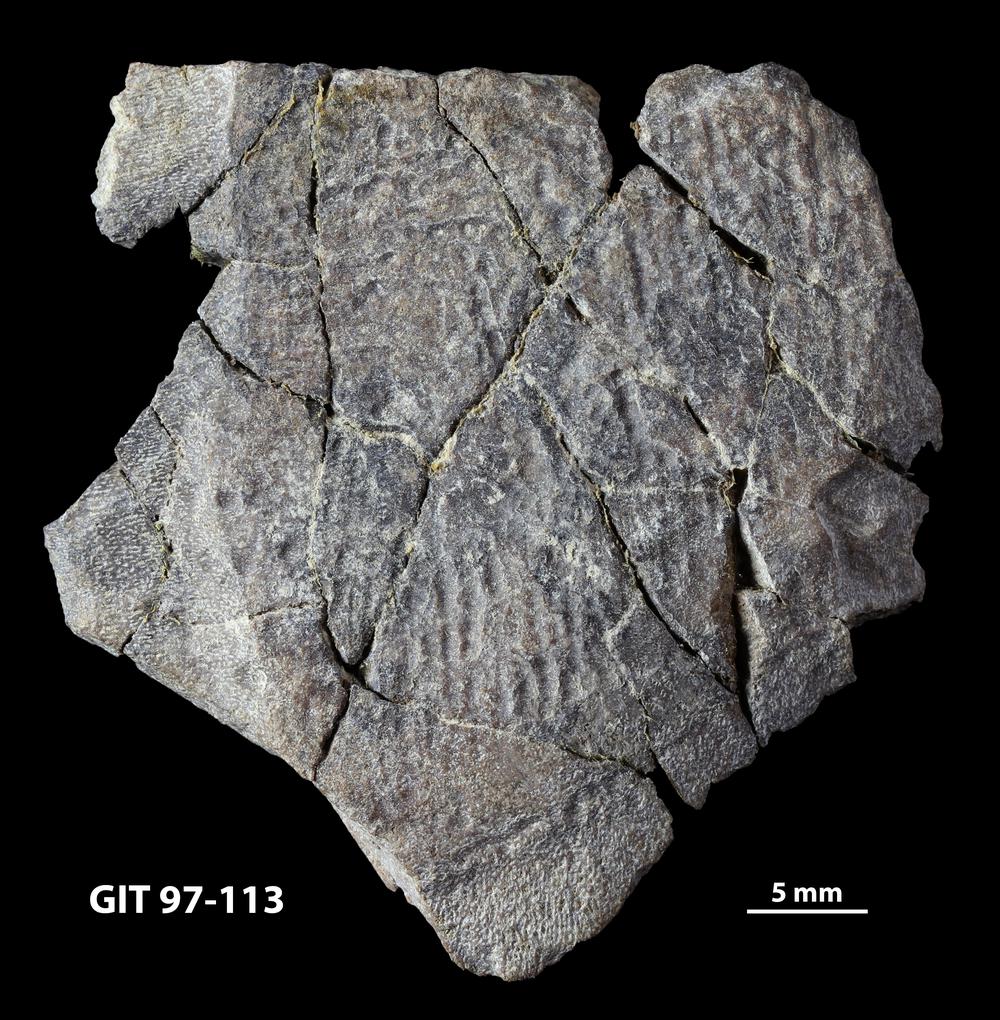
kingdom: Animalia
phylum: Chordata
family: Holonematidae
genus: Holonema
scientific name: Holonema
